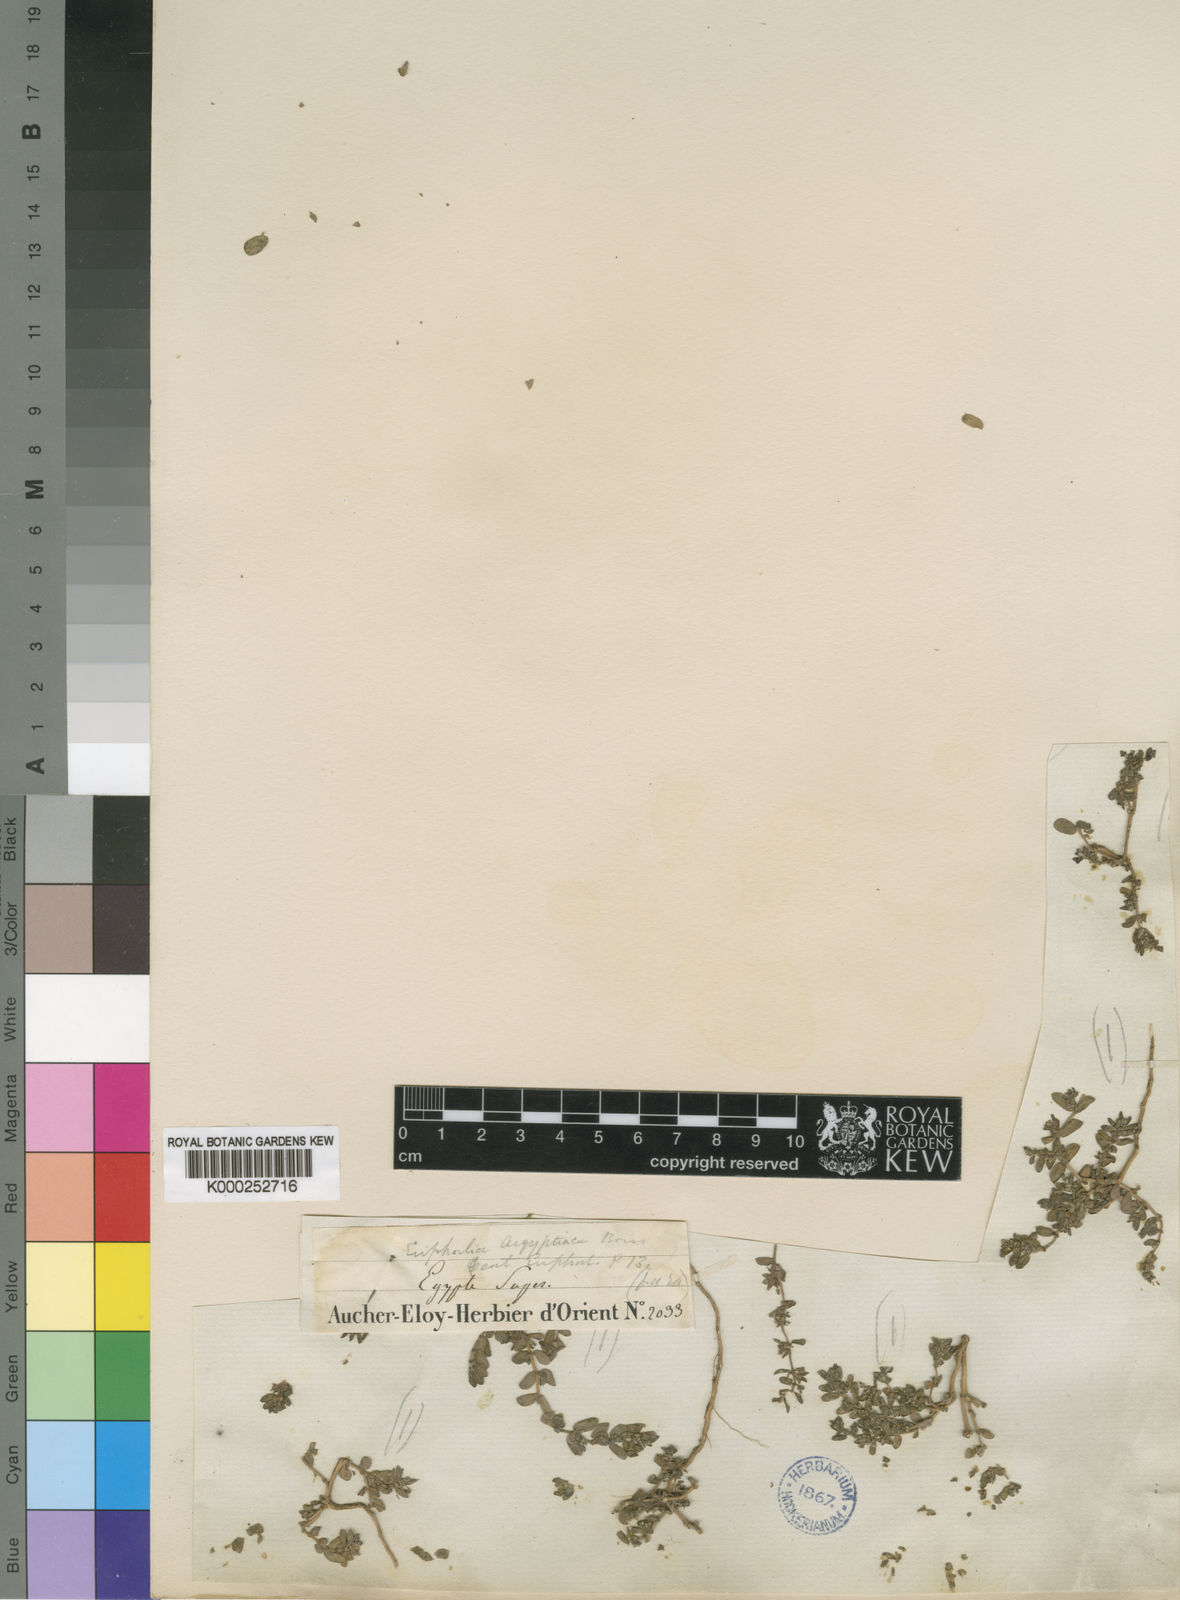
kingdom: Plantae
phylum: Tracheophyta
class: Magnoliopsida
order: Malpighiales
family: Euphorbiaceae
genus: Euphorbia
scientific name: Euphorbia
